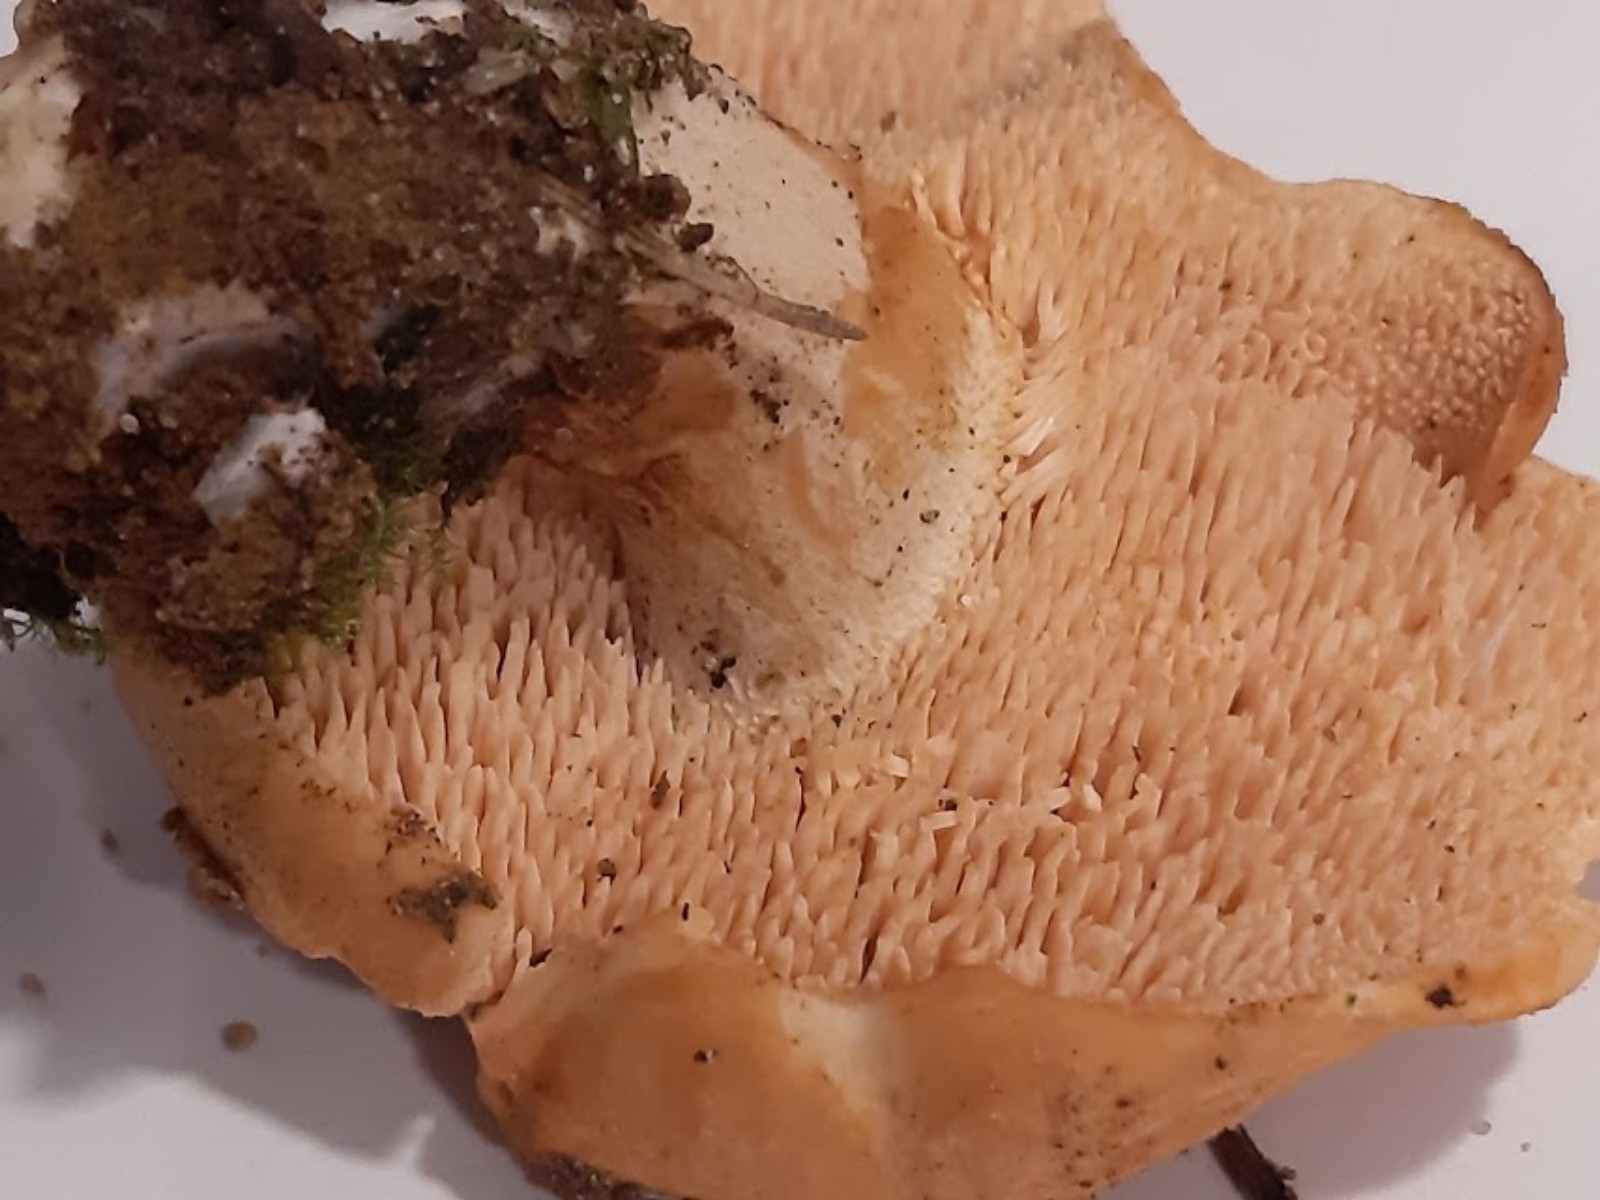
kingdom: Fungi
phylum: Basidiomycota
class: Agaricomycetes
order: Cantharellales
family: Hydnaceae
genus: Hydnum
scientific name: Hydnum
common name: pigsvamp
